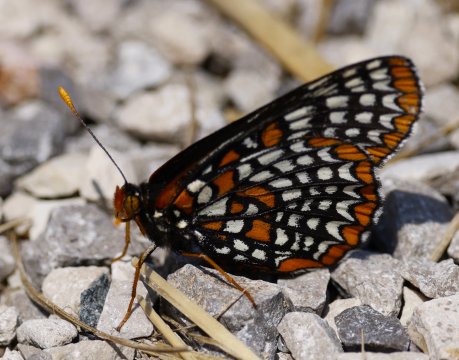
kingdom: Animalia
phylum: Arthropoda
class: Insecta
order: Lepidoptera
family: Nymphalidae
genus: Euphydryas
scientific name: Euphydryas phaeton
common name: Baltimore Checkerspot
